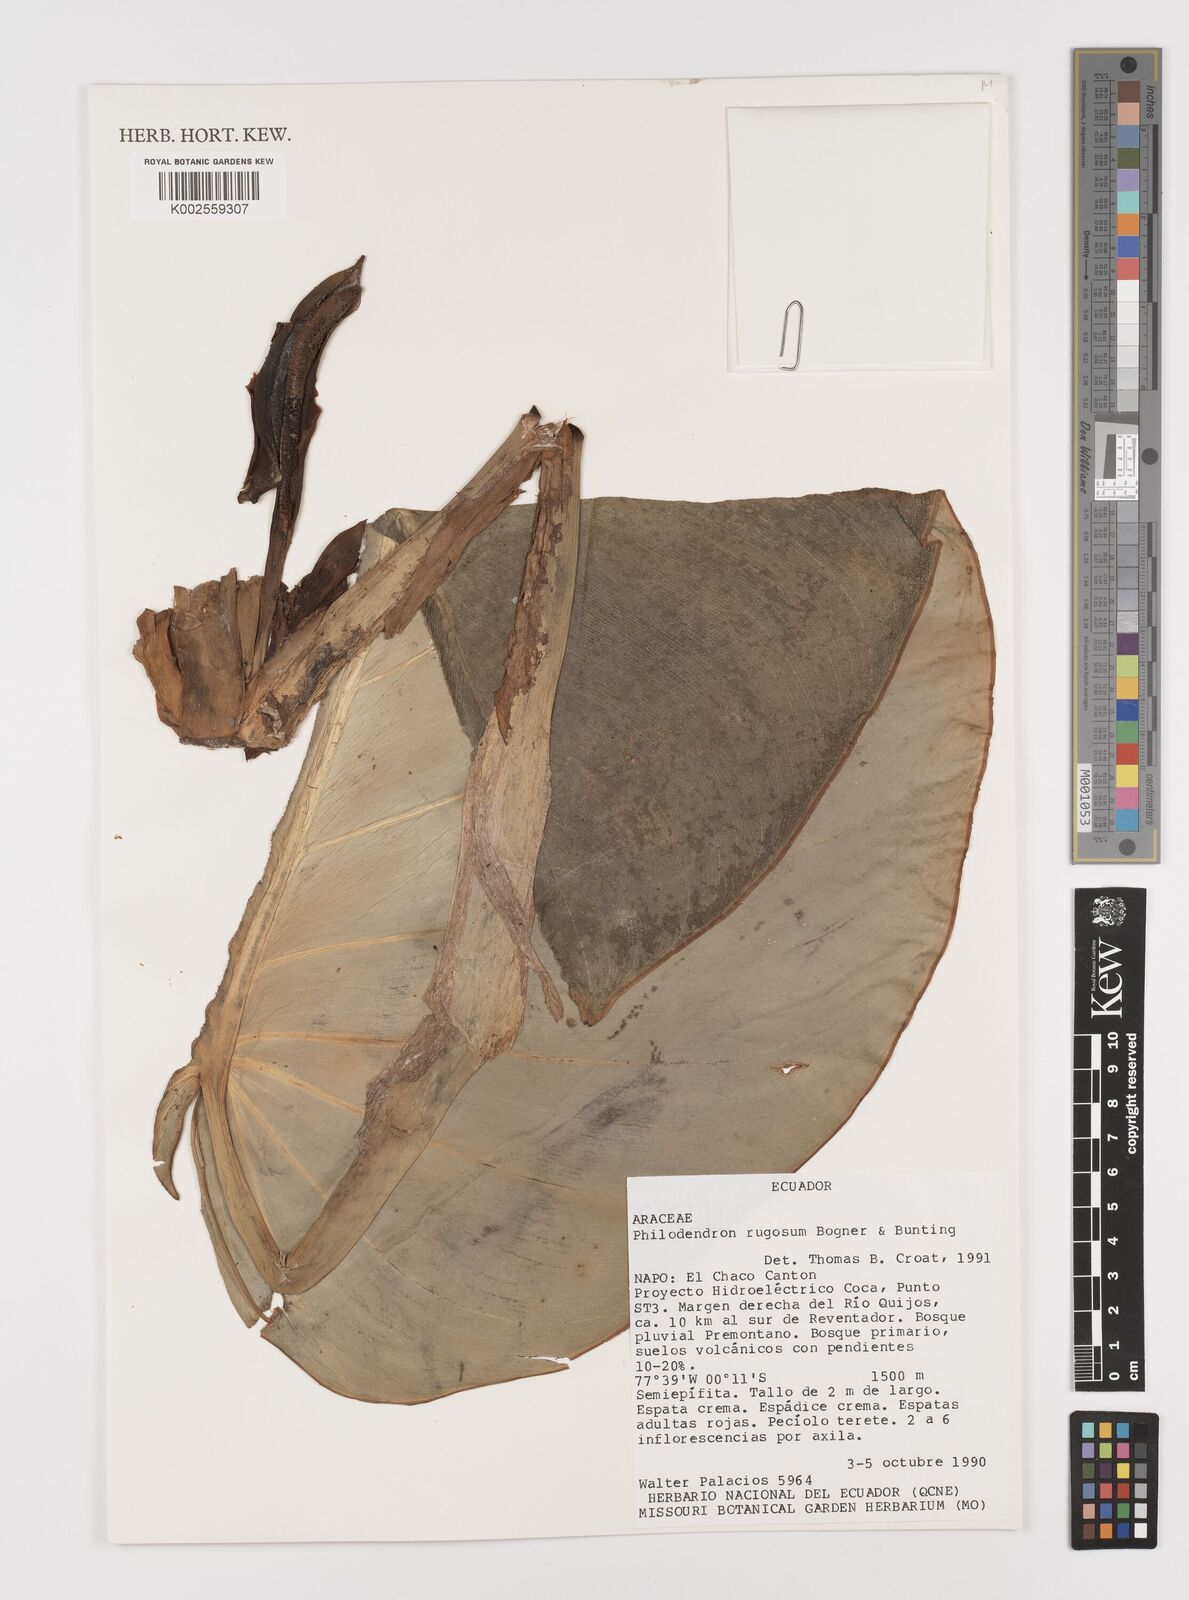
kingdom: Plantae
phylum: Tracheophyta
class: Liliopsida
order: Alismatales
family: Araceae
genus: Philodendron
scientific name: Philodendron rugosum
